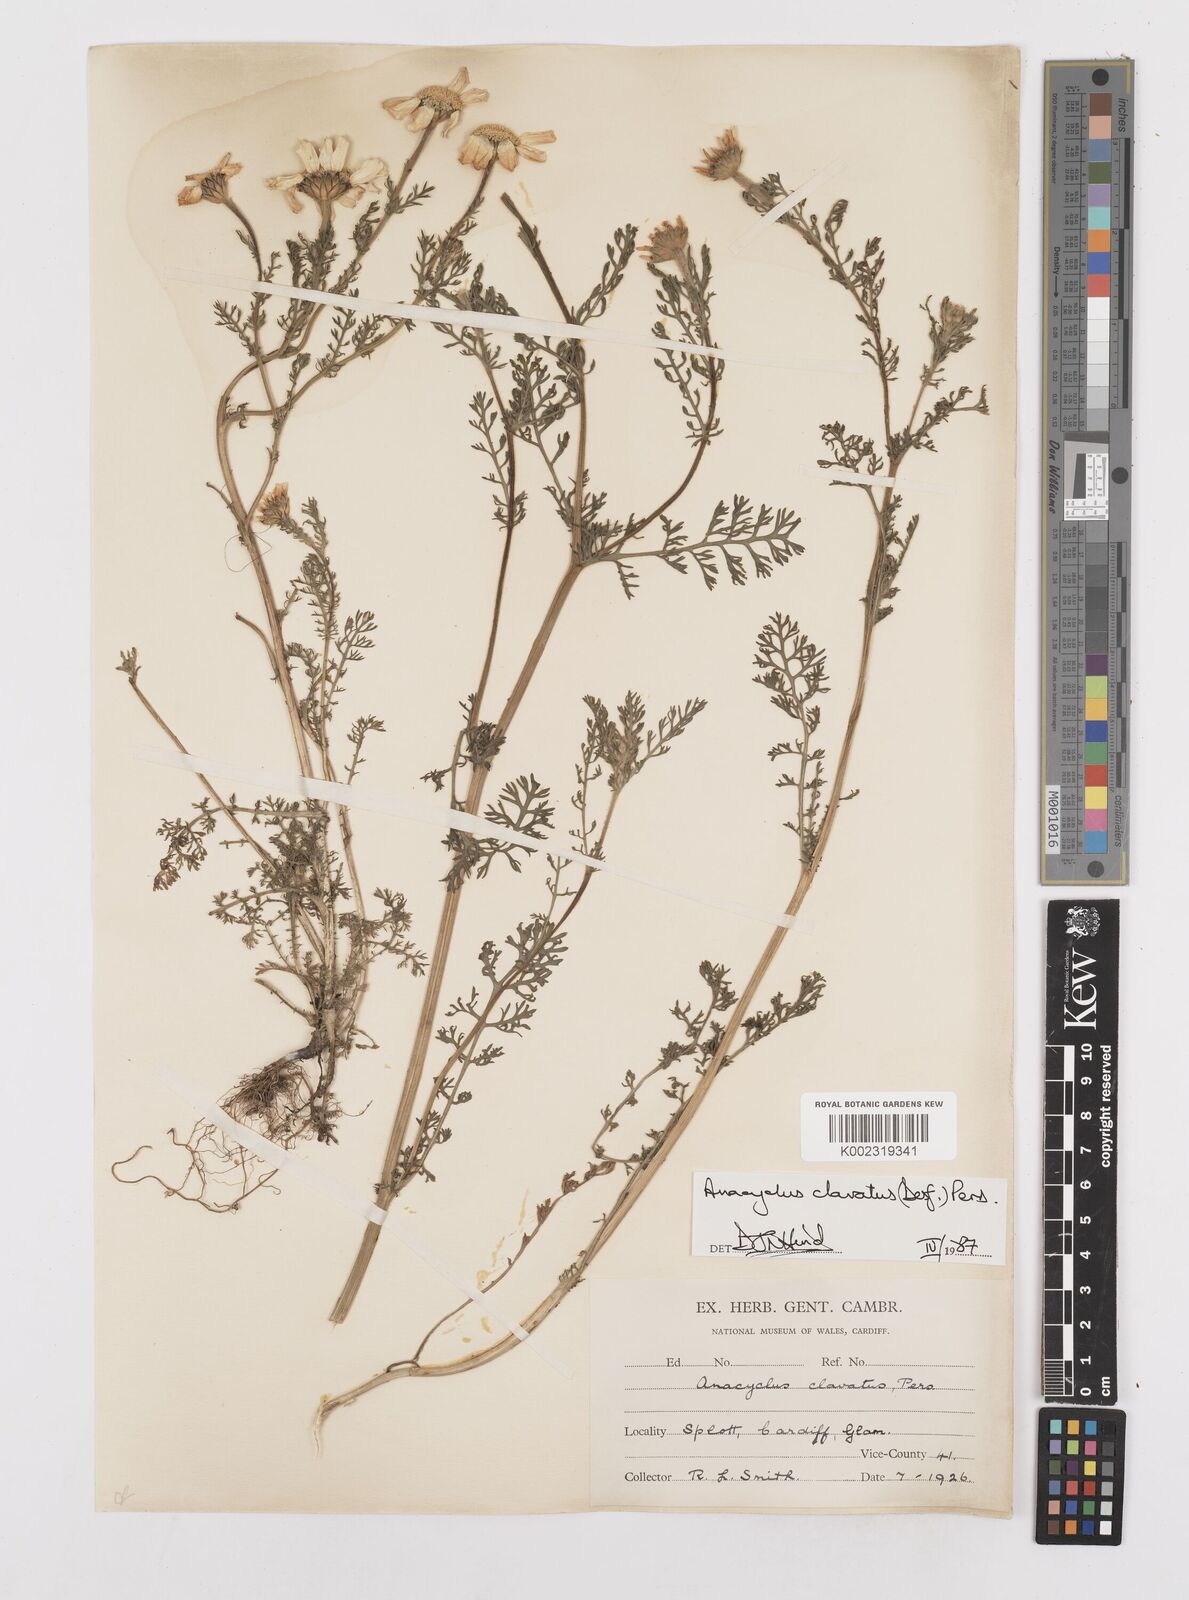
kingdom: Plantae
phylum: Tracheophyta
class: Magnoliopsida
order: Asterales
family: Asteraceae
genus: Anacyclus
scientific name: Anacyclus clavatus
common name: Whitebuttons
